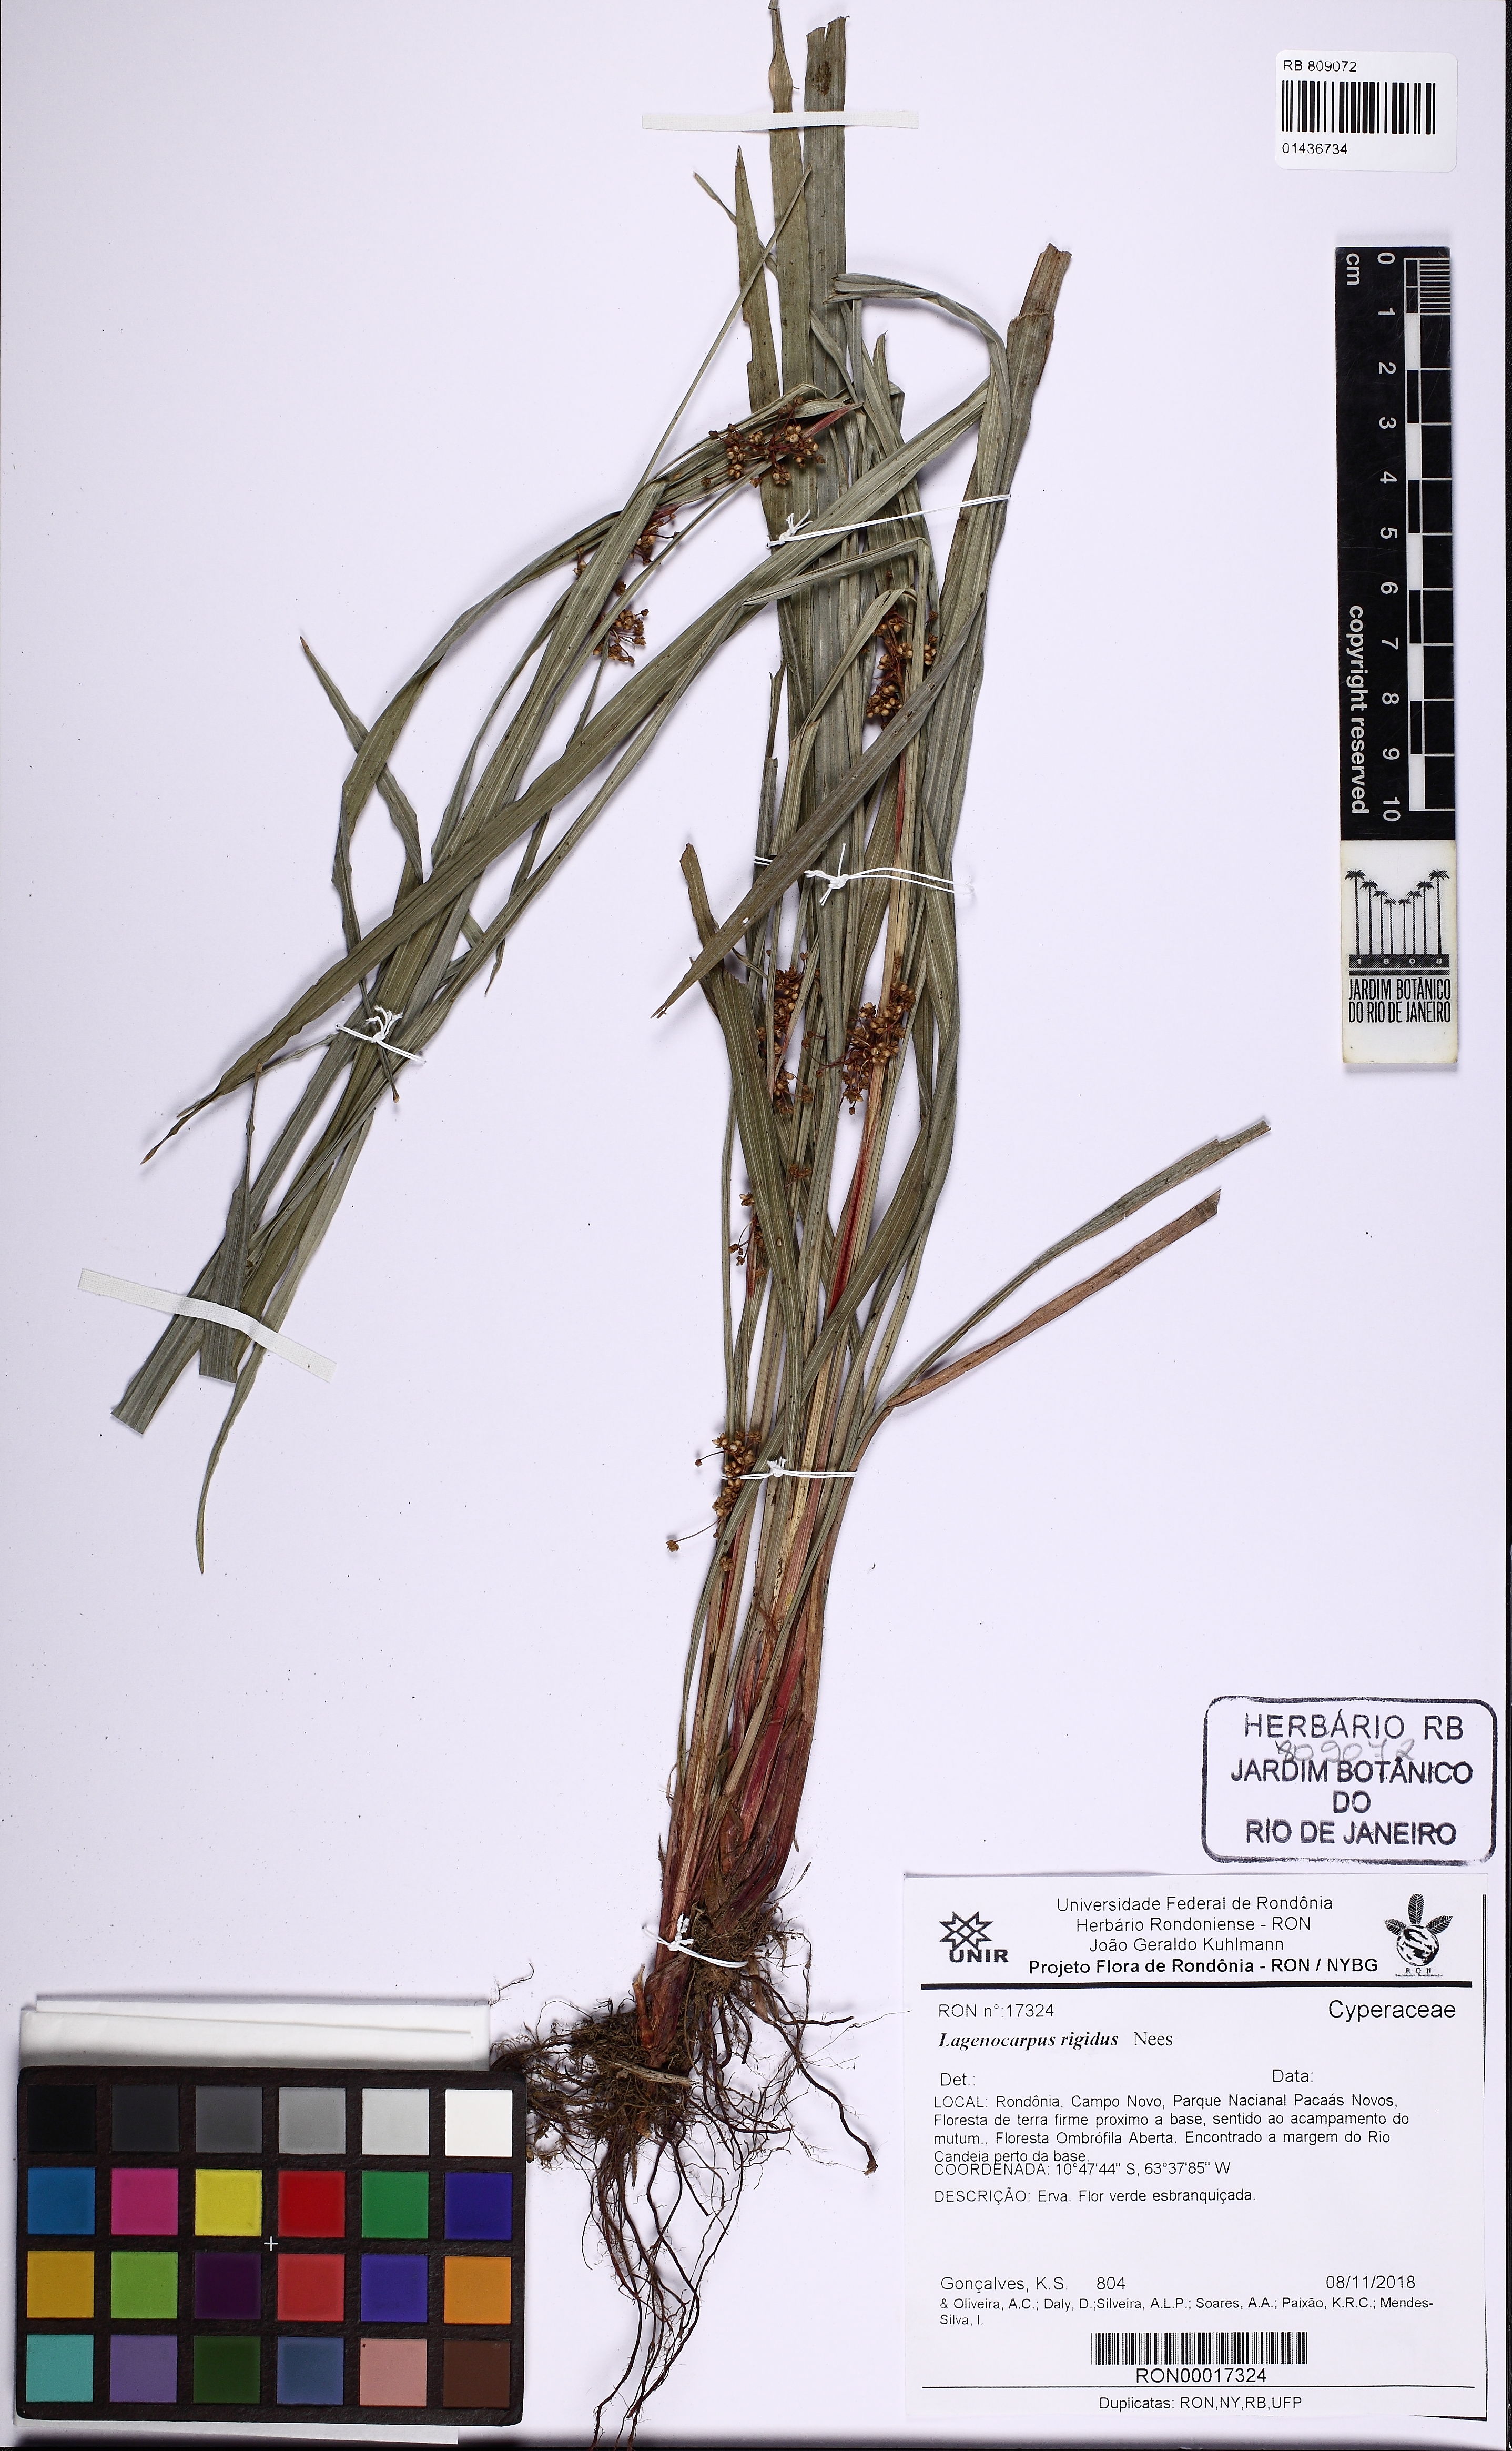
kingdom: Plantae
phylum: Tracheophyta
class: Liliopsida
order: Poales
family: Cyperaceae
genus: Lagenocarpus
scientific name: Lagenocarpus rigidus
